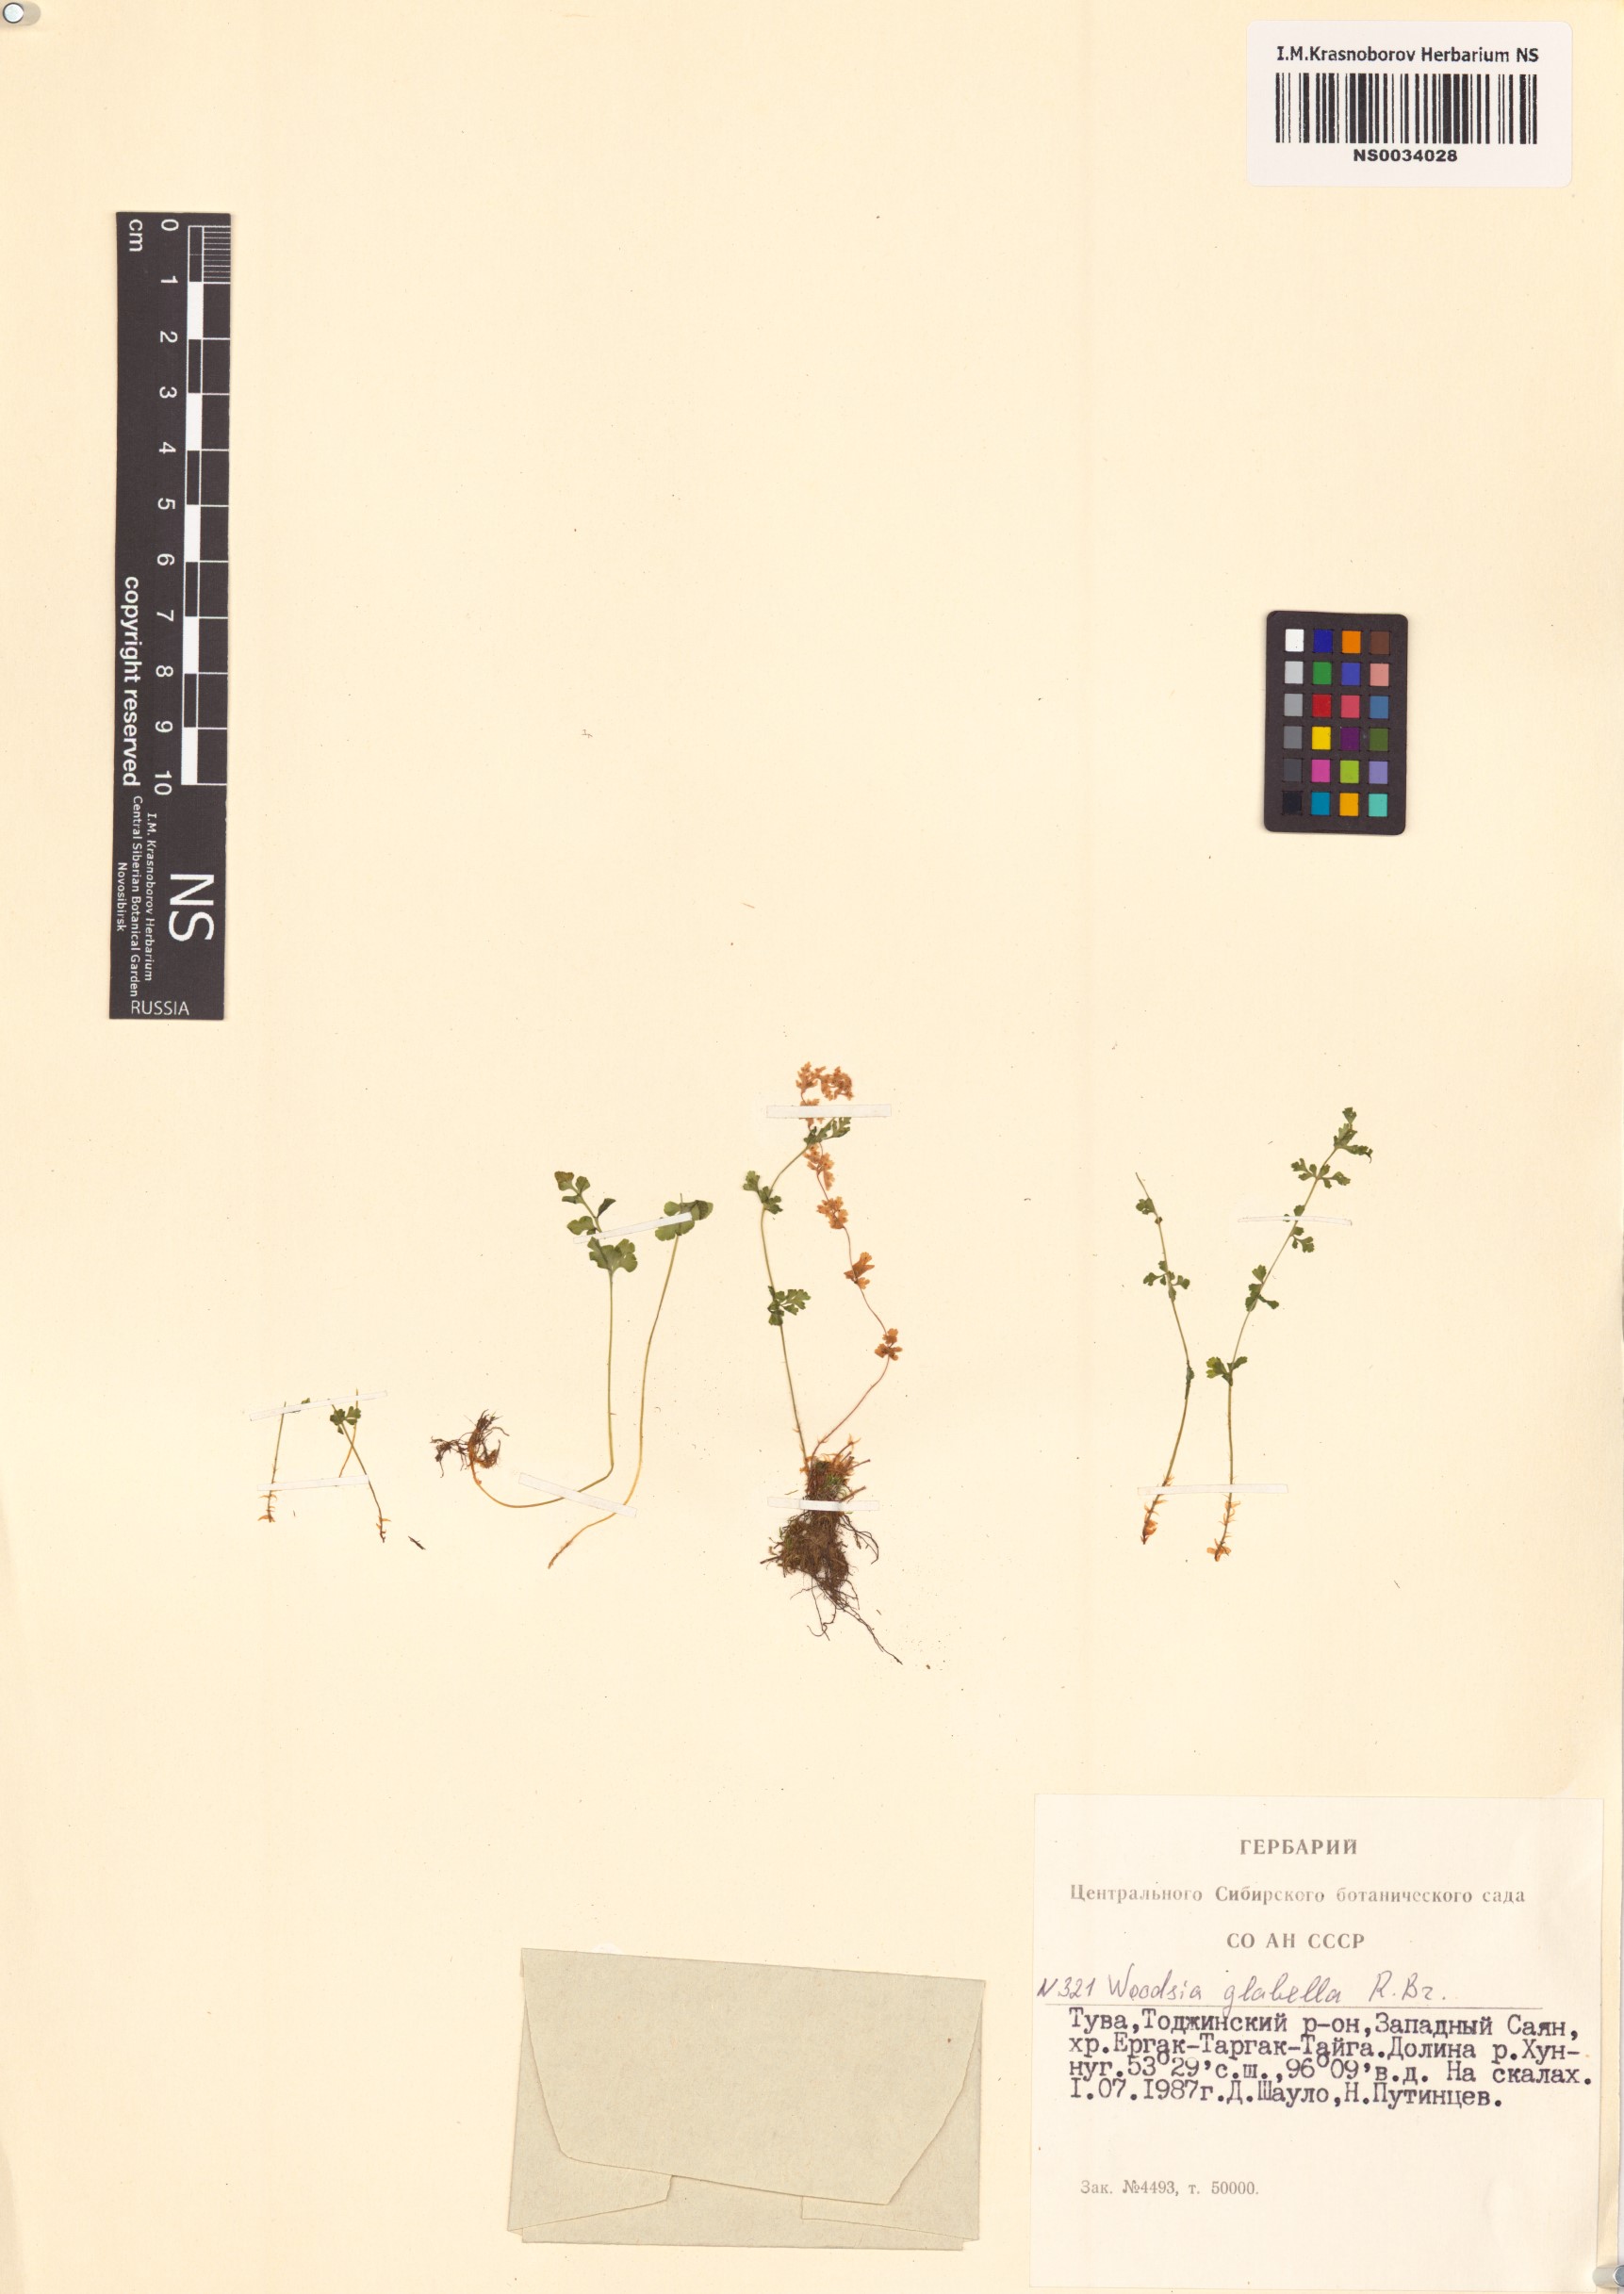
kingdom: Plantae
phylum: Tracheophyta
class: Polypodiopsida
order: Polypodiales
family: Woodsiaceae
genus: Woodsia
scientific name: Woodsia glabella
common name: Smooth woodsia
